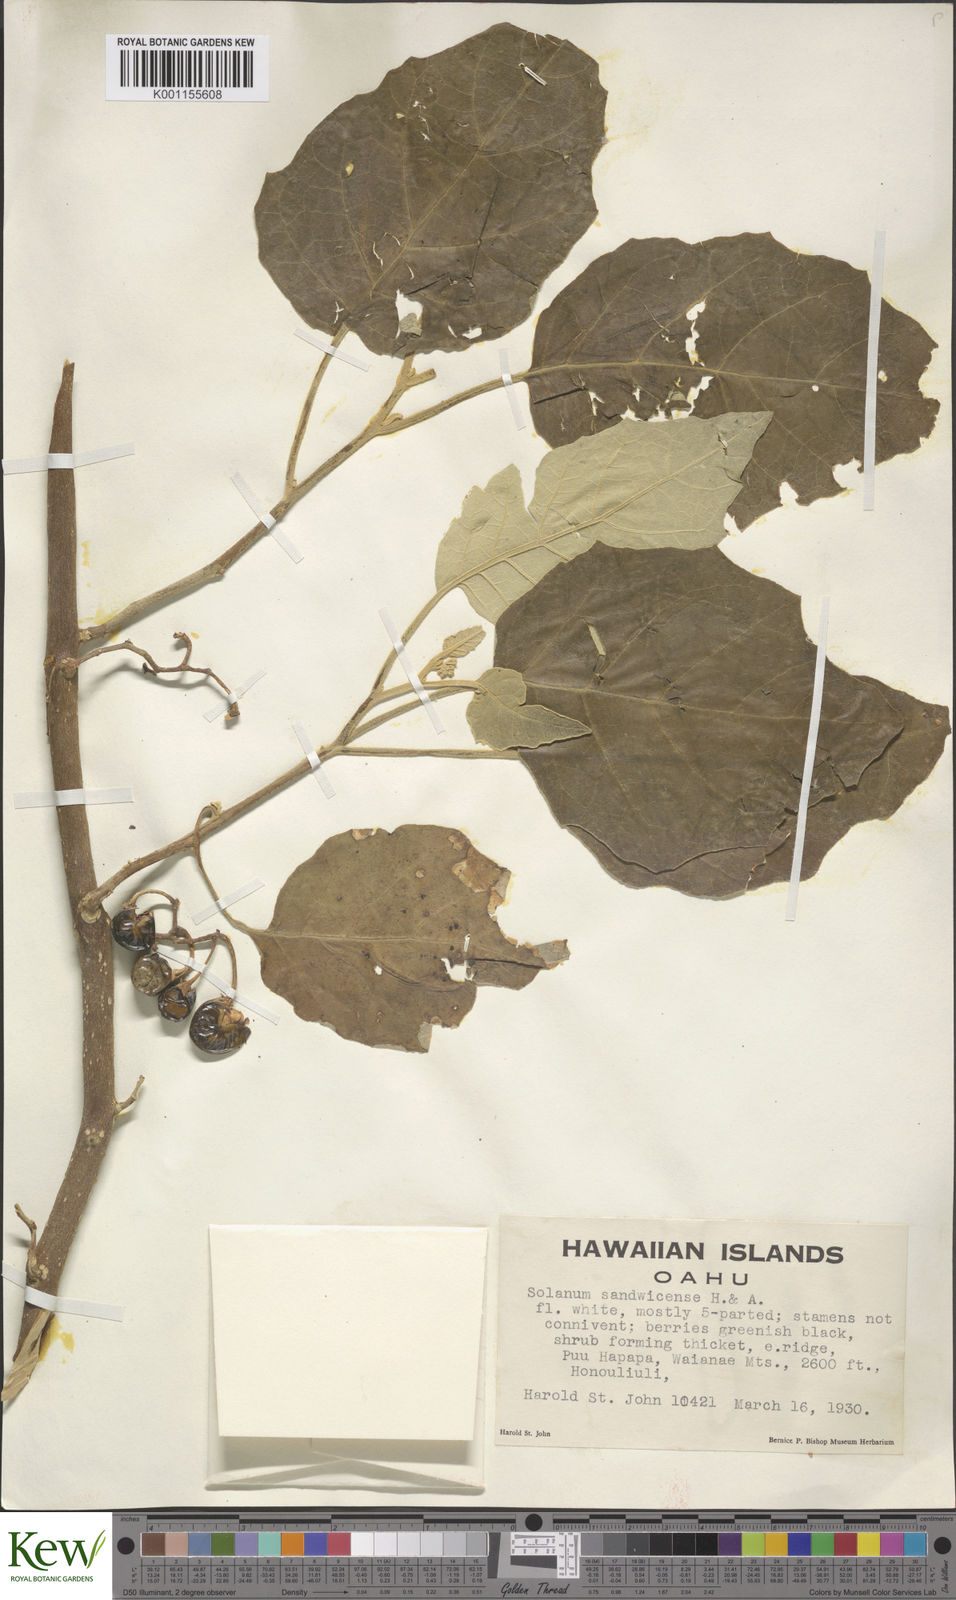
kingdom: Plantae
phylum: Tracheophyta
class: Magnoliopsida
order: Solanales
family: Solanaceae
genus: Solanum
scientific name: Solanum sandwicense
